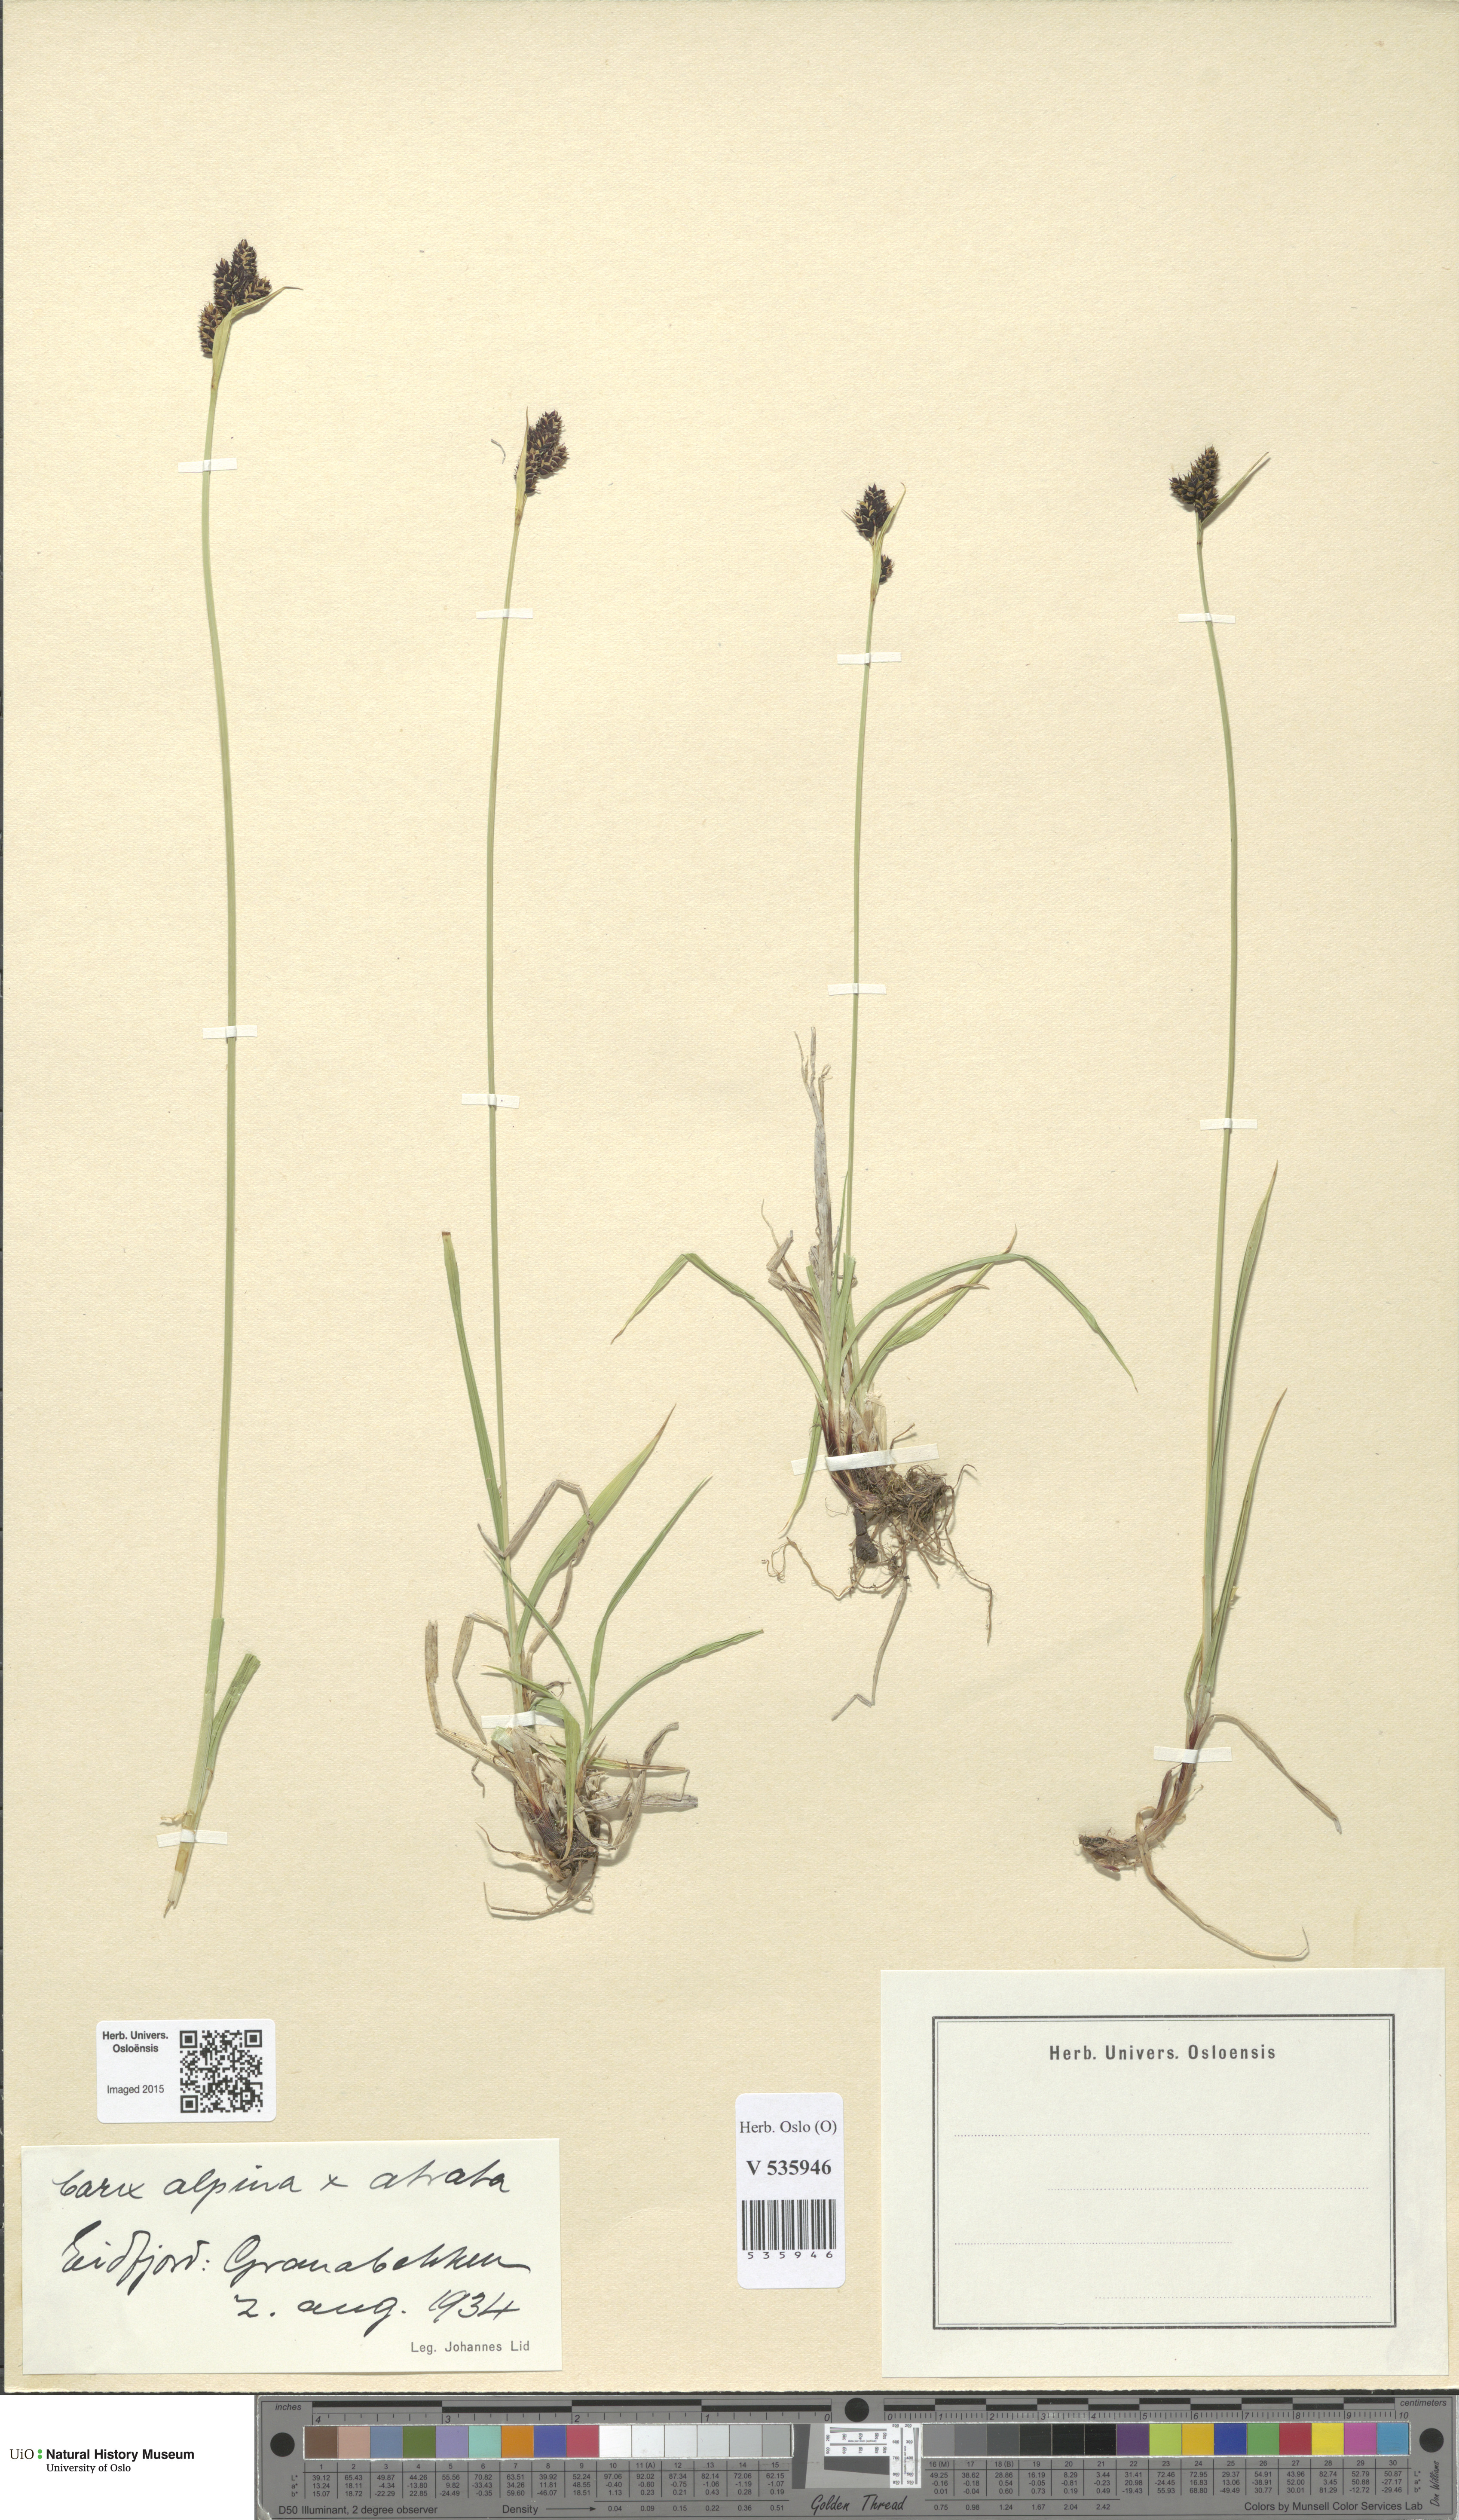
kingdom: Plantae
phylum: Tracheophyta
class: Liliopsida
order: Poales
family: Cyperaceae
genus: Carex
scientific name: Carex
